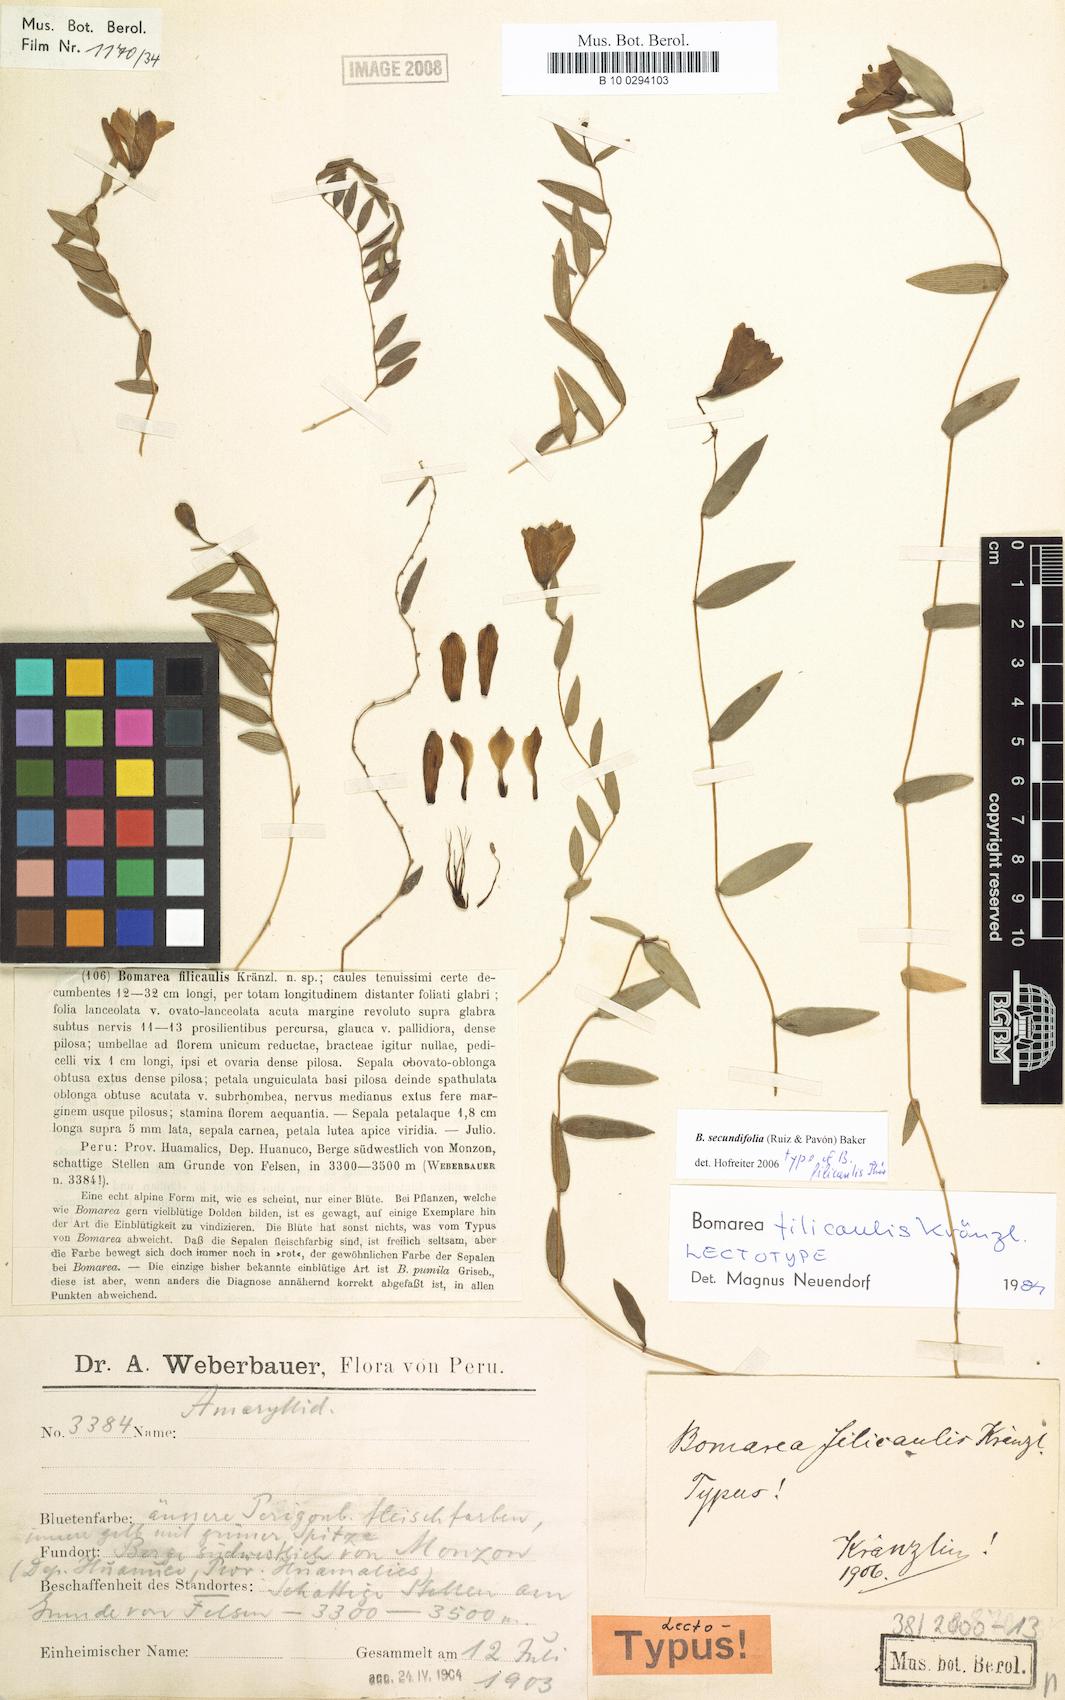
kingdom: Plantae
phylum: Tracheophyta
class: Liliopsida
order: Liliales
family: Alstroemeriaceae
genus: Bomarea
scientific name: Bomarea secundifolia
